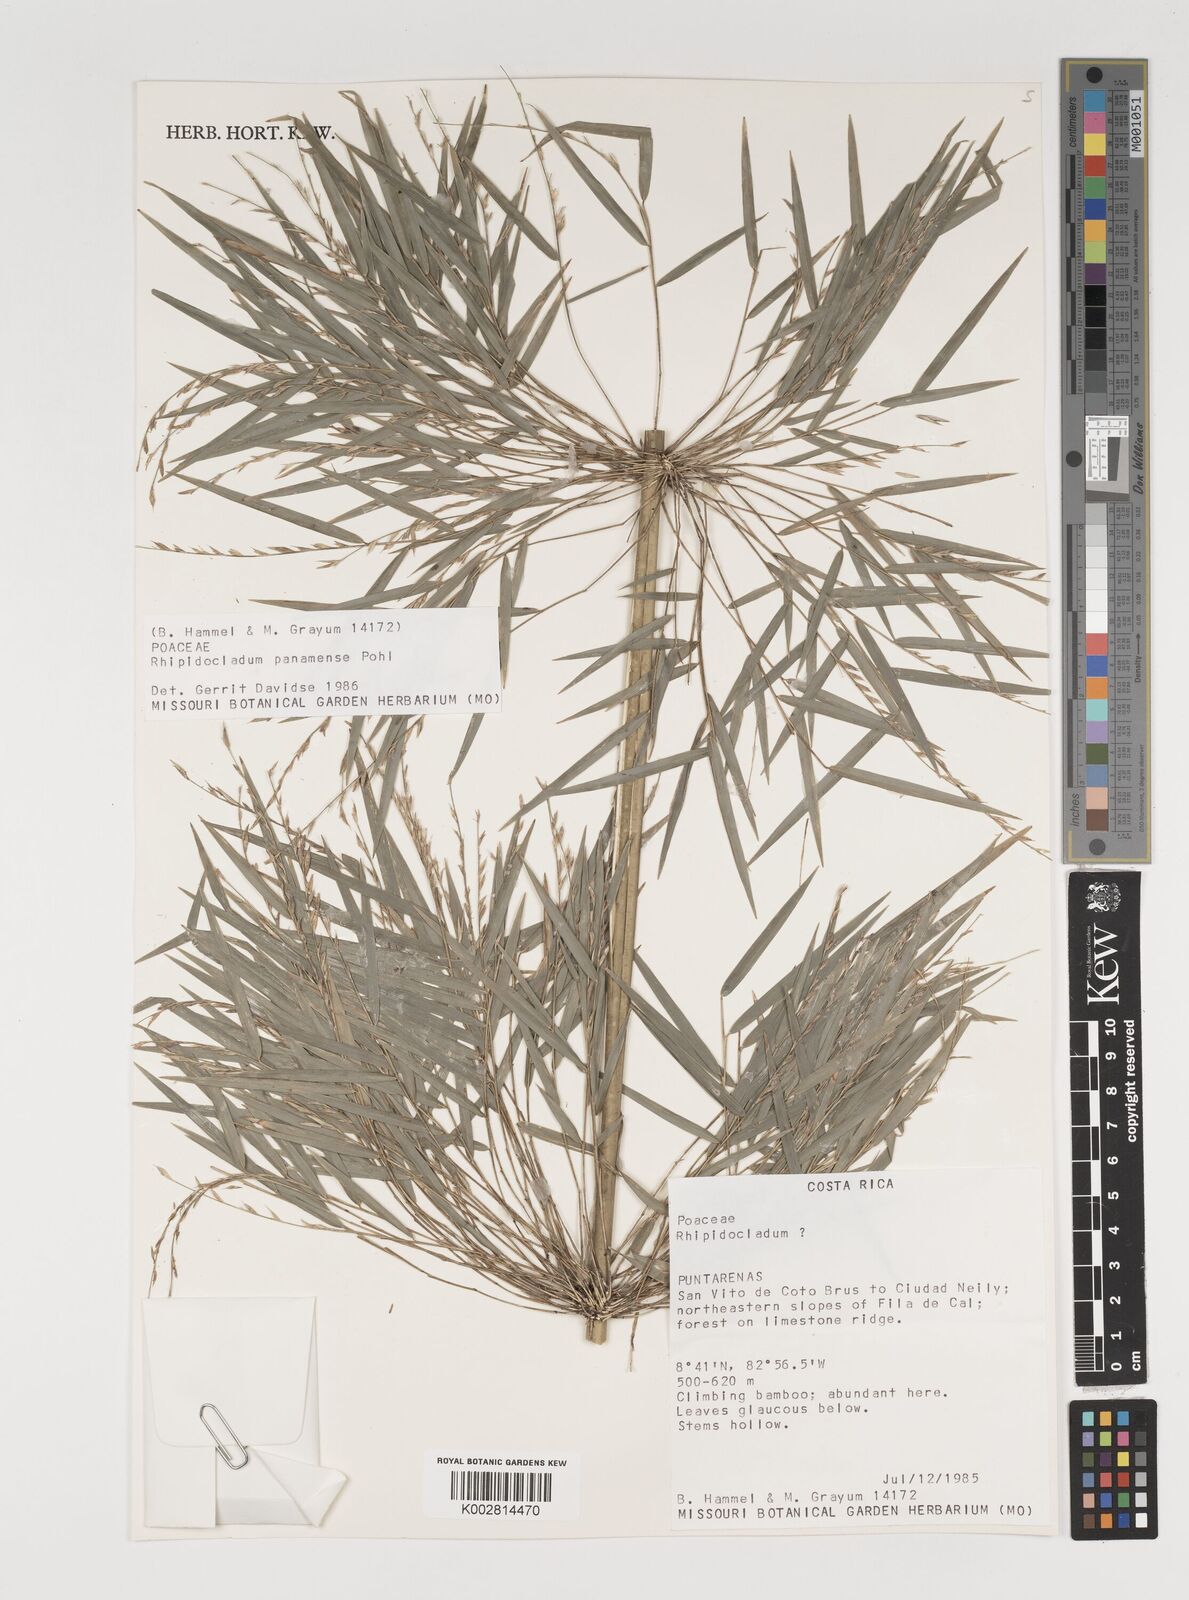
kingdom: Plantae
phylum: Tracheophyta
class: Liliopsida
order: Poales
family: Poaceae
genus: Rhipidocladum
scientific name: Rhipidocladum panamense
